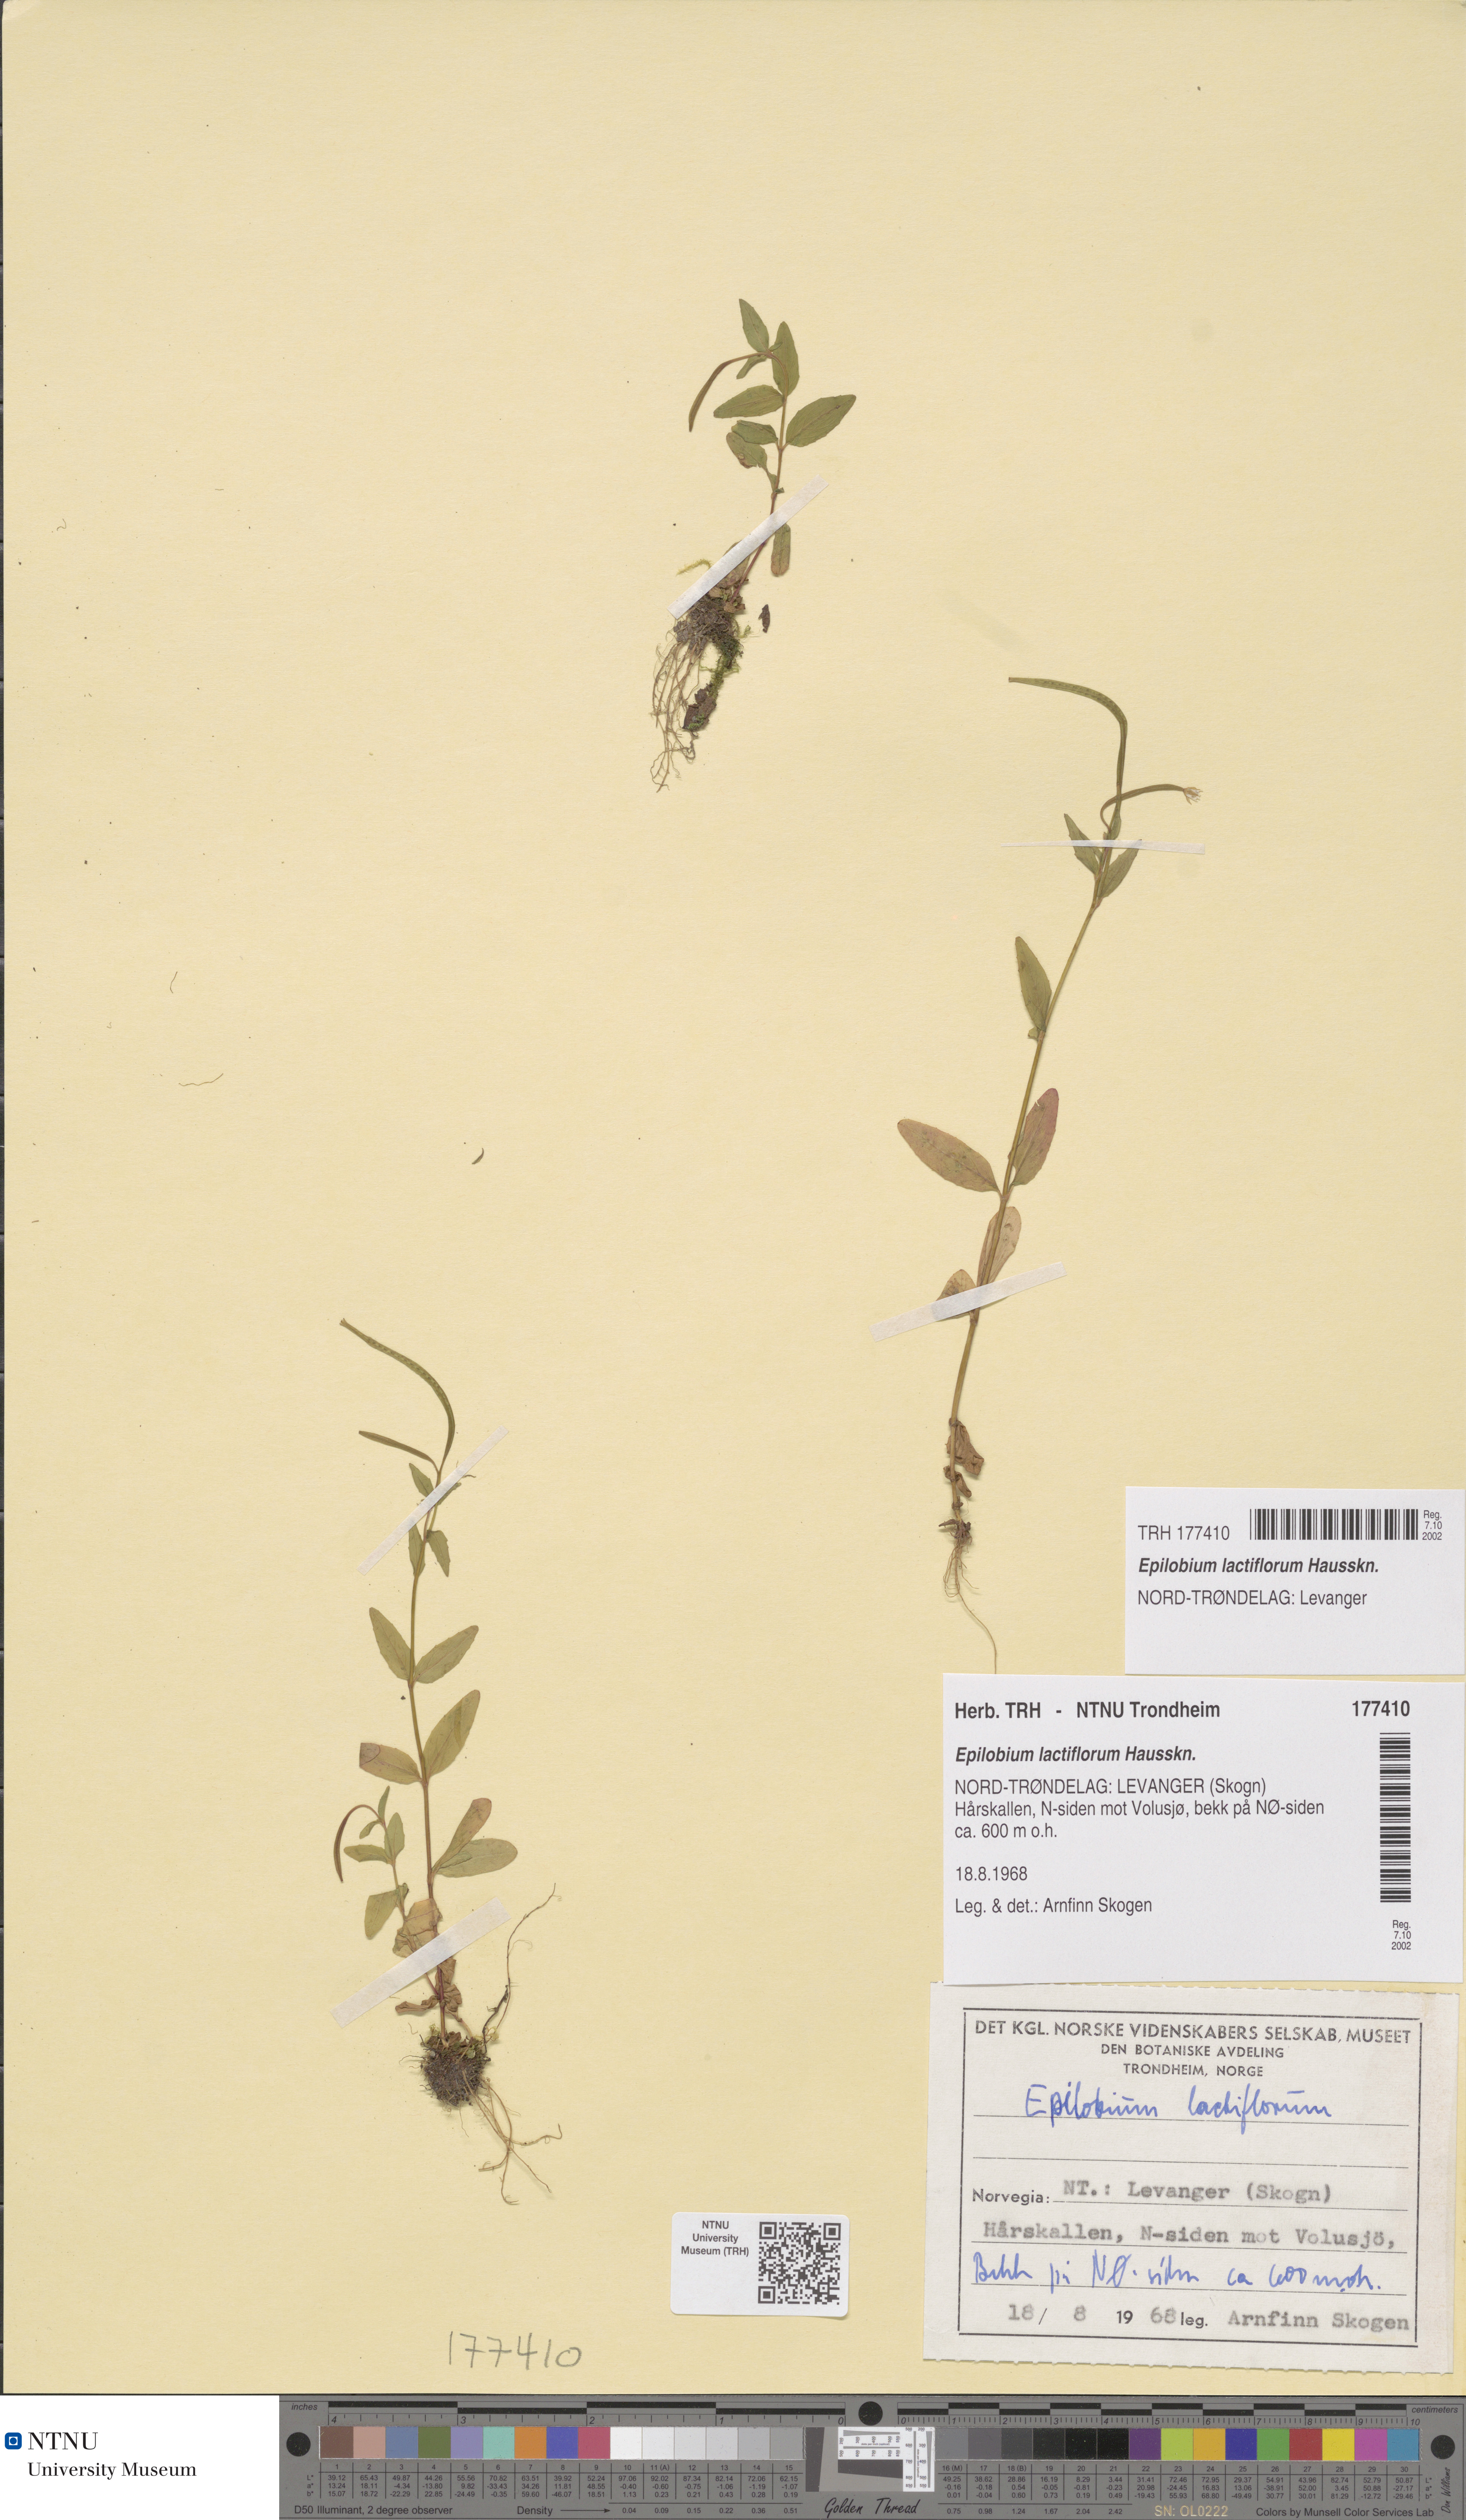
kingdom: Plantae
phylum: Tracheophyta
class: Magnoliopsida
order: Myrtales
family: Onagraceae
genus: Epilobium
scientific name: Epilobium lactiflorum
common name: Milkflower willowherb
